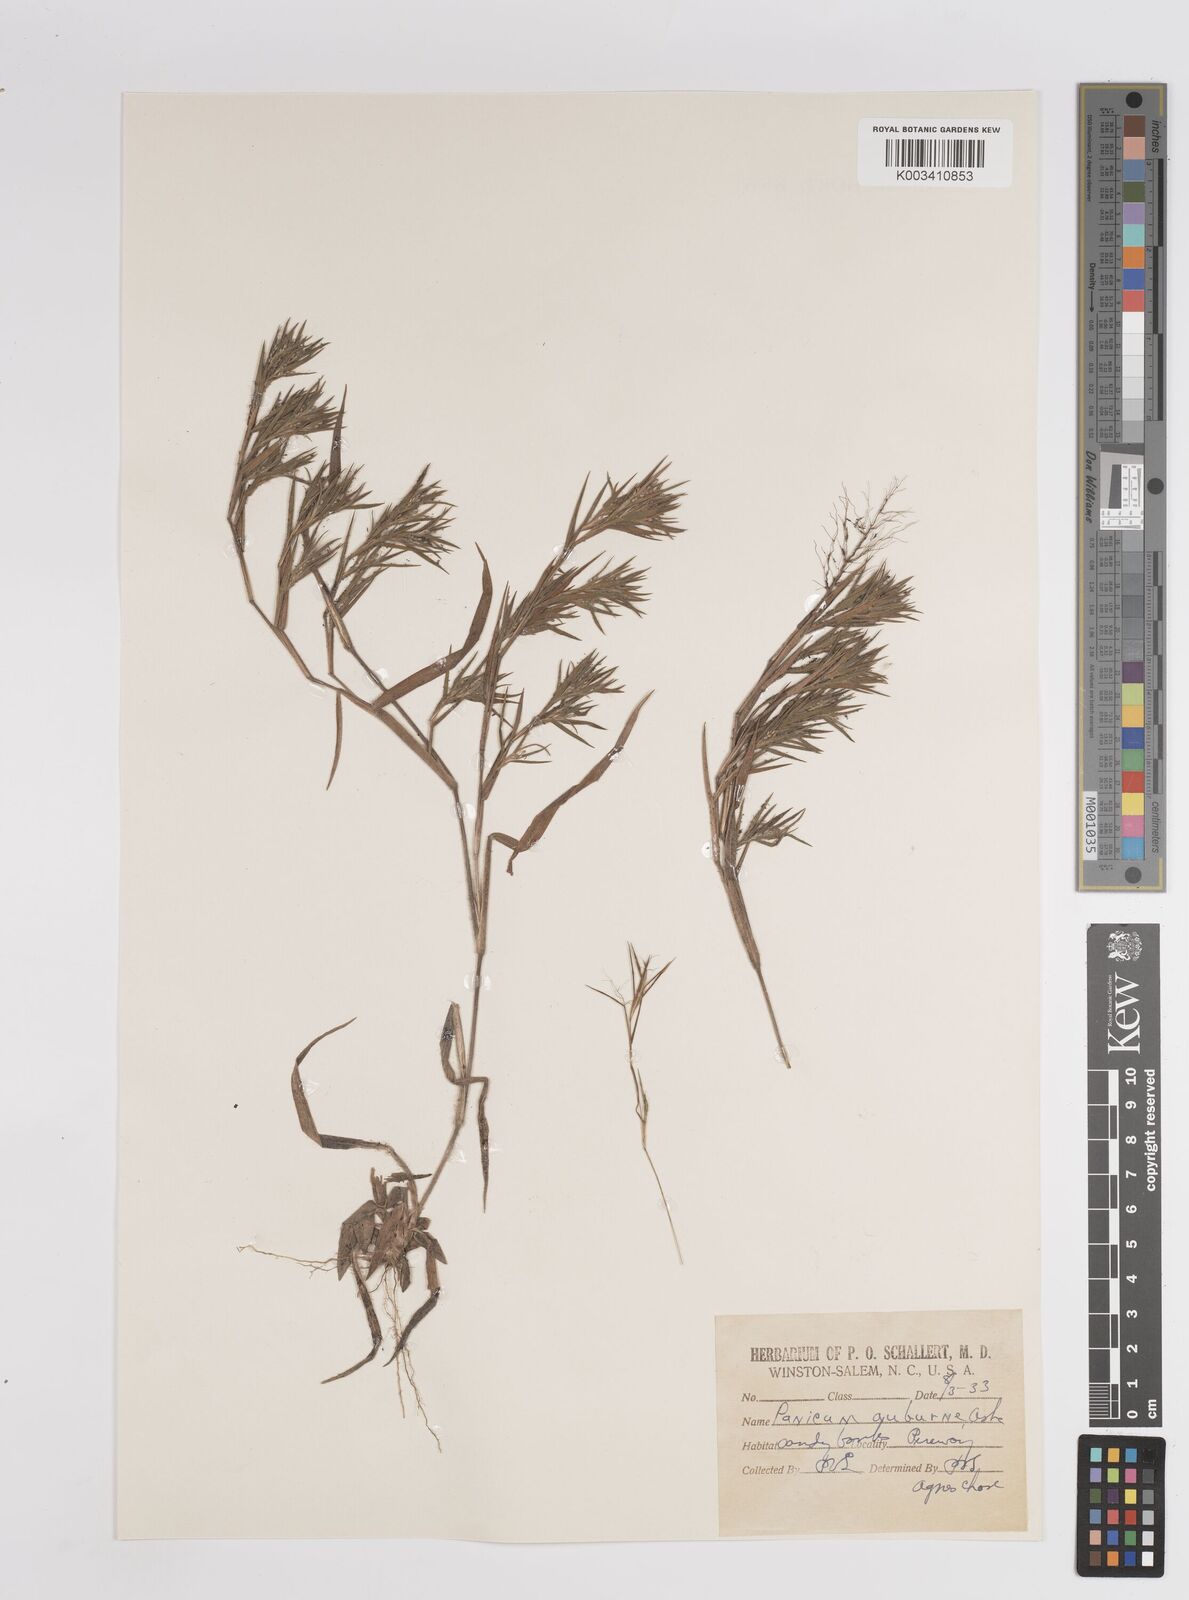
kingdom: Plantae
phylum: Tracheophyta
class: Liliopsida
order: Poales
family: Poaceae
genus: Dichanthelium
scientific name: Dichanthelium acuminatum
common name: Hairy panic grass
